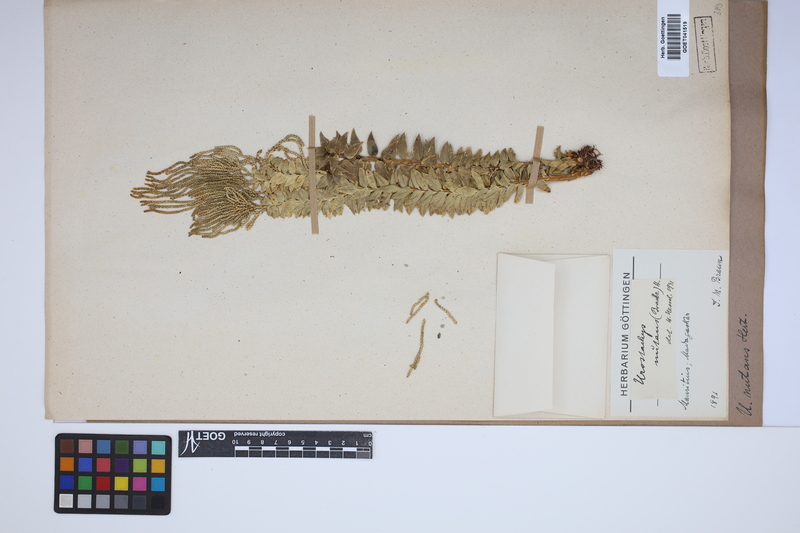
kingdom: Plantae
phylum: Tracheophyta
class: Lycopodiopsida
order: Lycopodiales
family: Lycopodiaceae
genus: Phlegmariurus
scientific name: Phlegmariurus nutans
